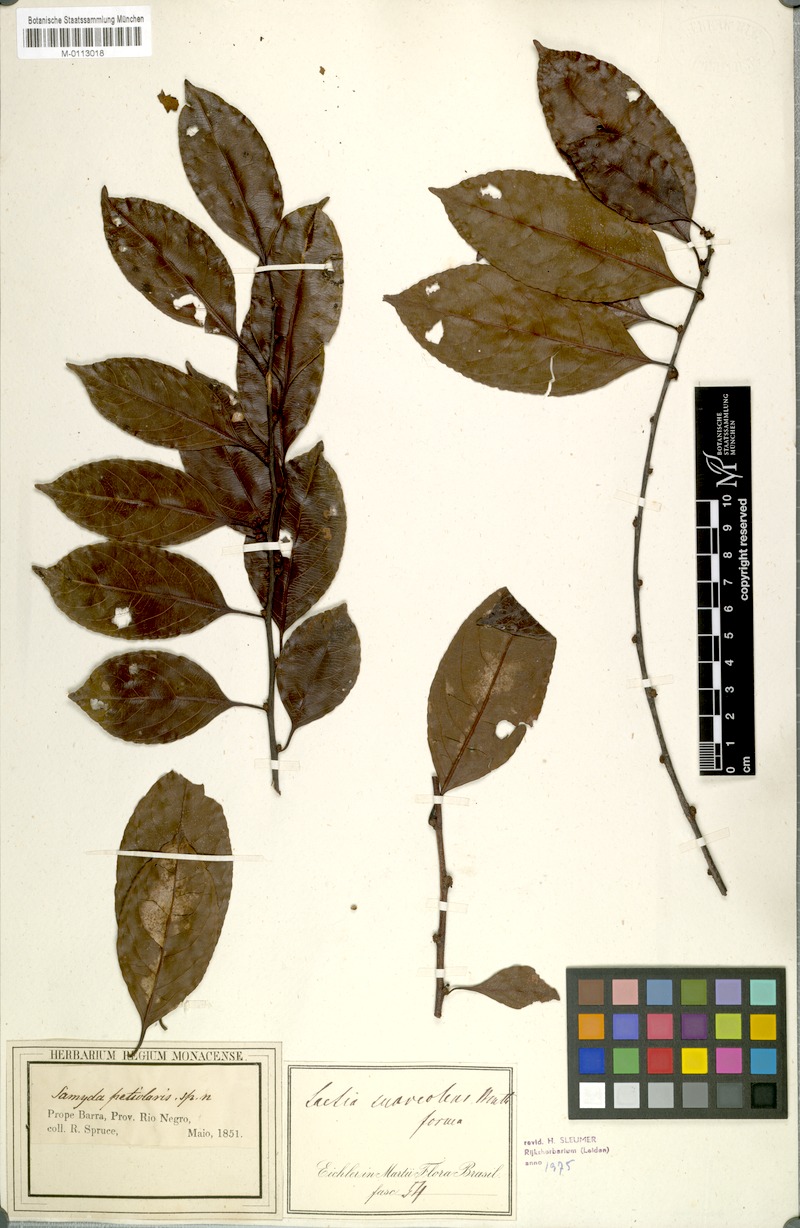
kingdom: Plantae
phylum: Tracheophyta
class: Magnoliopsida
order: Malpighiales
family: Salicaceae
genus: Casearia
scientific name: Casearia suaveolens
